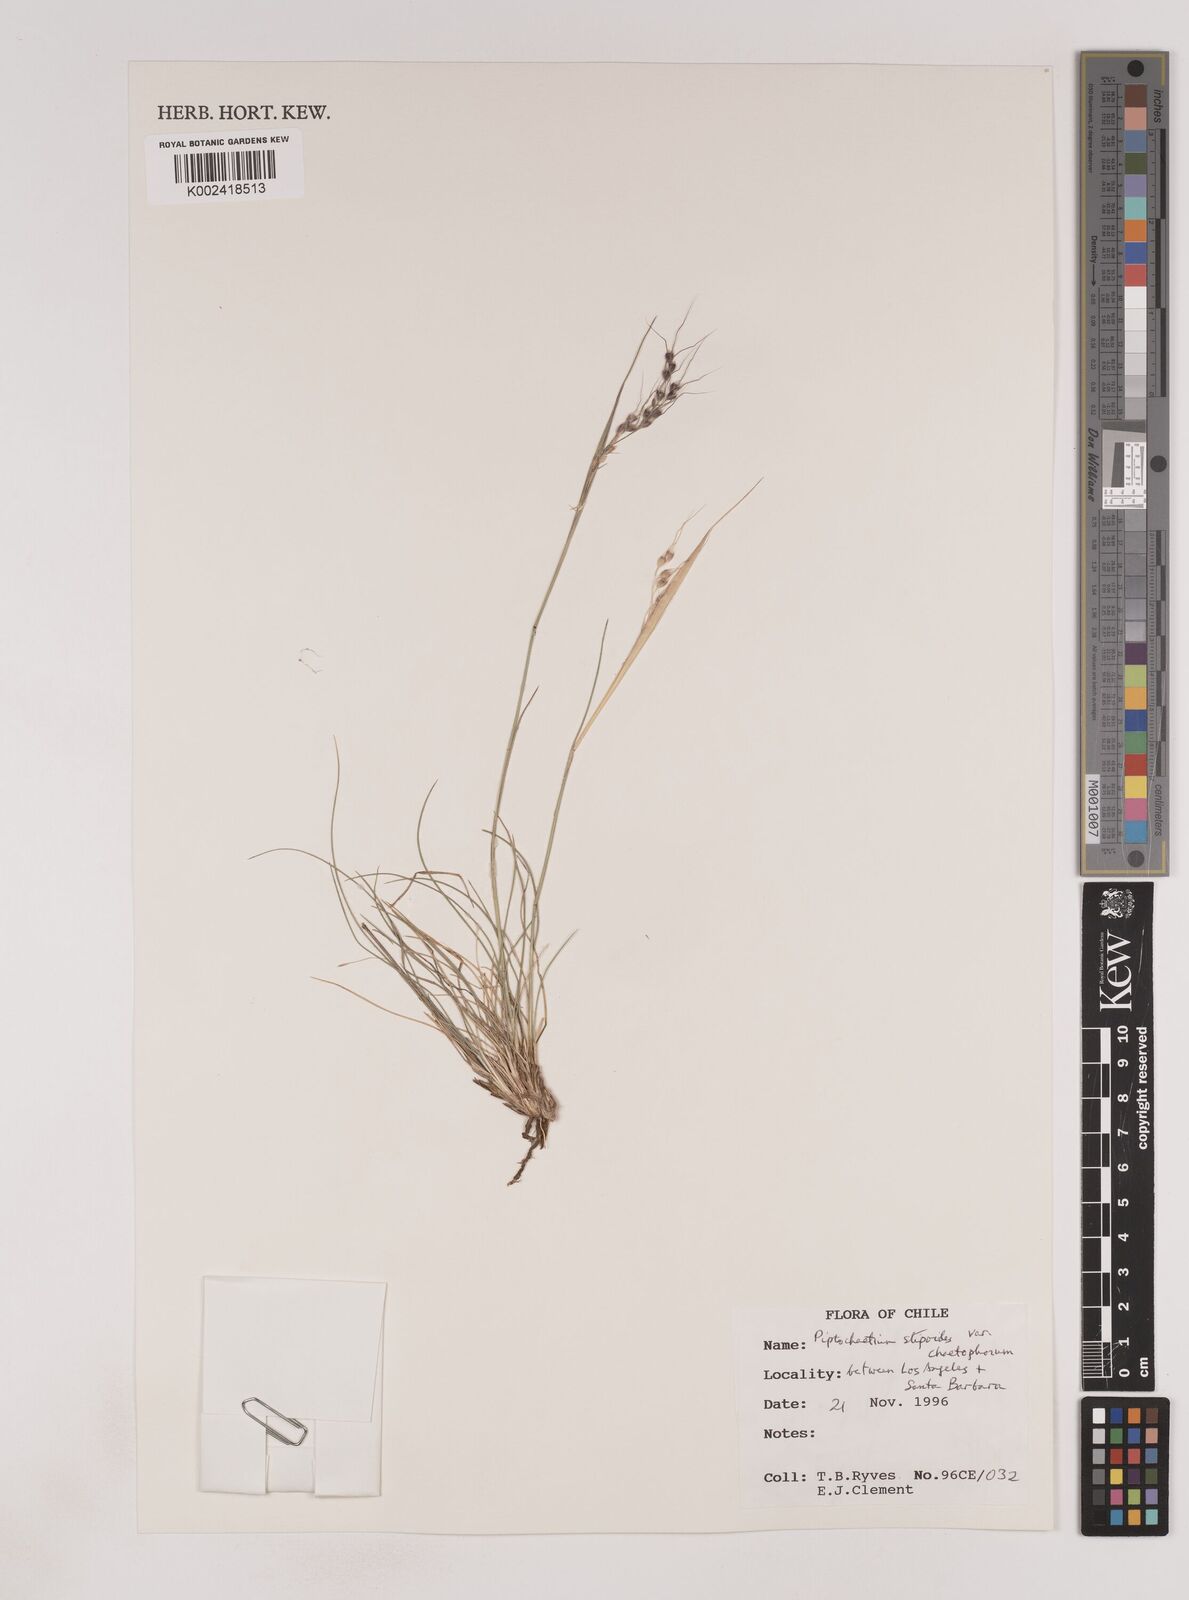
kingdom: Plantae
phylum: Tracheophyta
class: Liliopsida
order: Poales
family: Poaceae
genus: Piptochaetium
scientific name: Piptochaetium stipoides
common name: Purple speargrass
